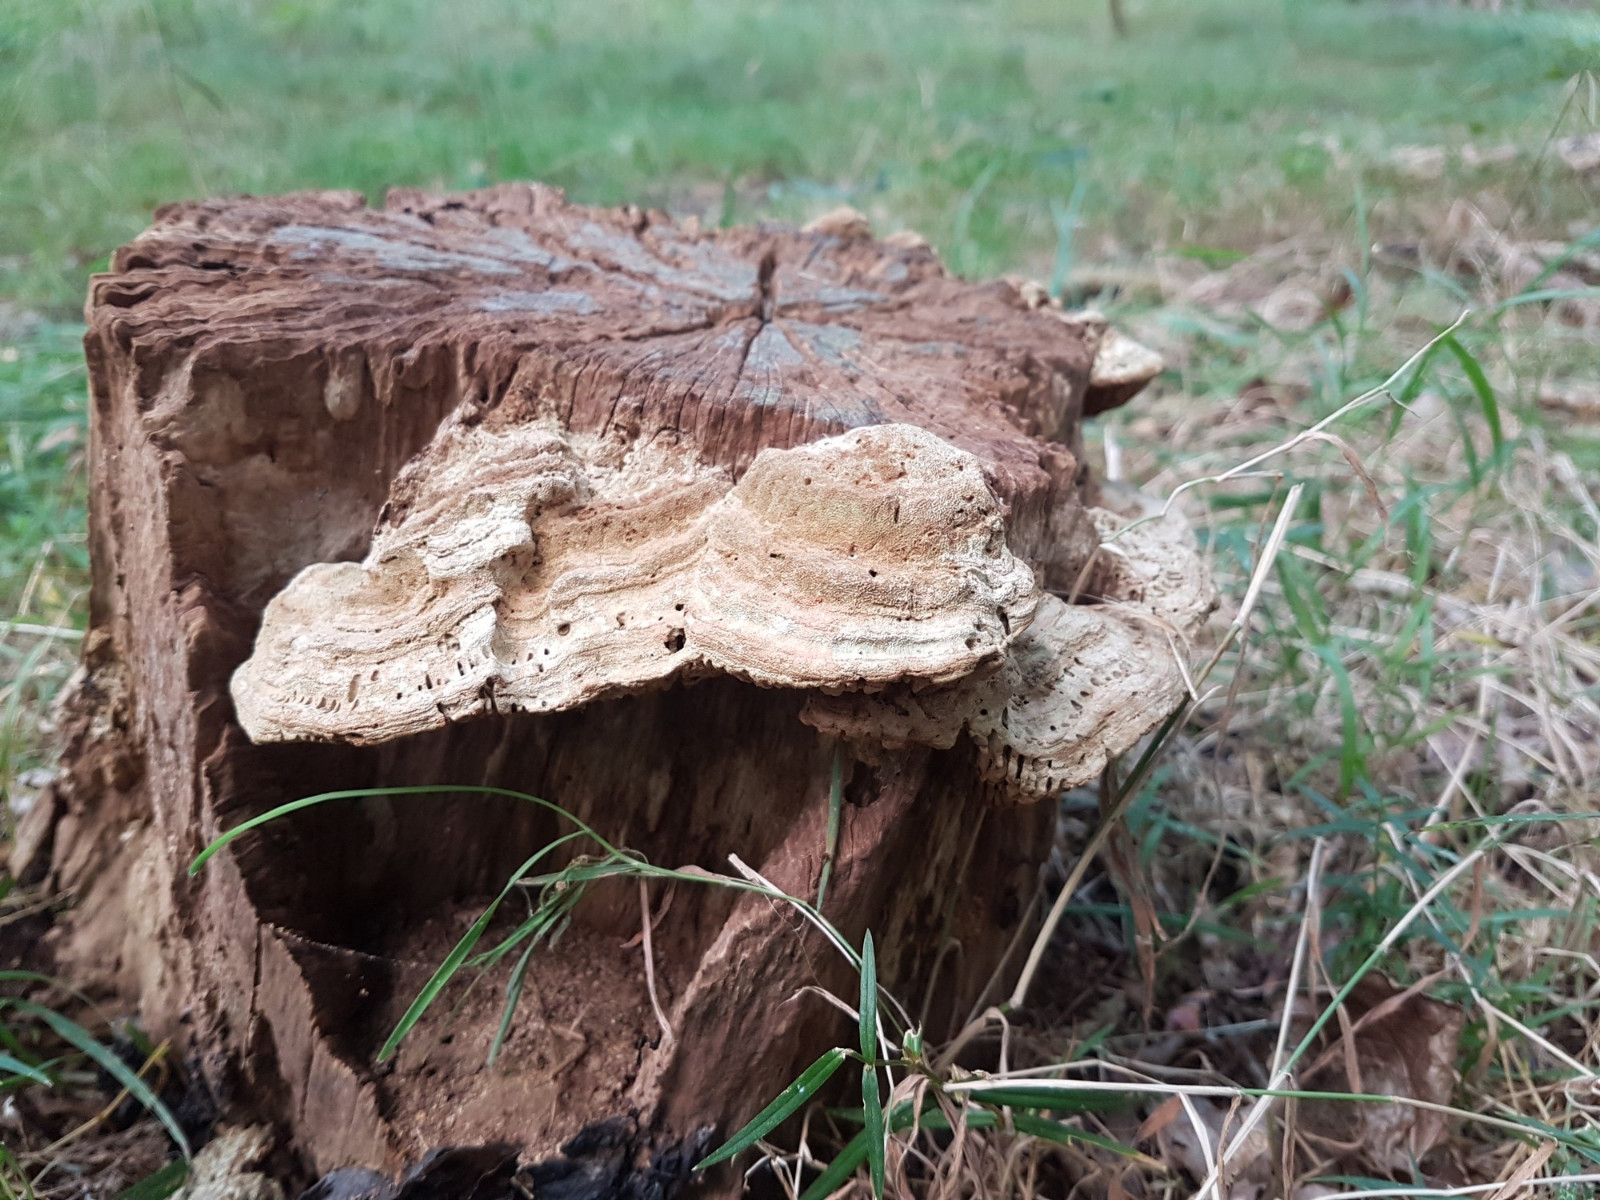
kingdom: Fungi
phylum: Basidiomycota
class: Agaricomycetes
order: Polyporales
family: Fomitopsidaceae
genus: Daedalea
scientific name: Daedalea quercina
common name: ege-labyrintsvamp
